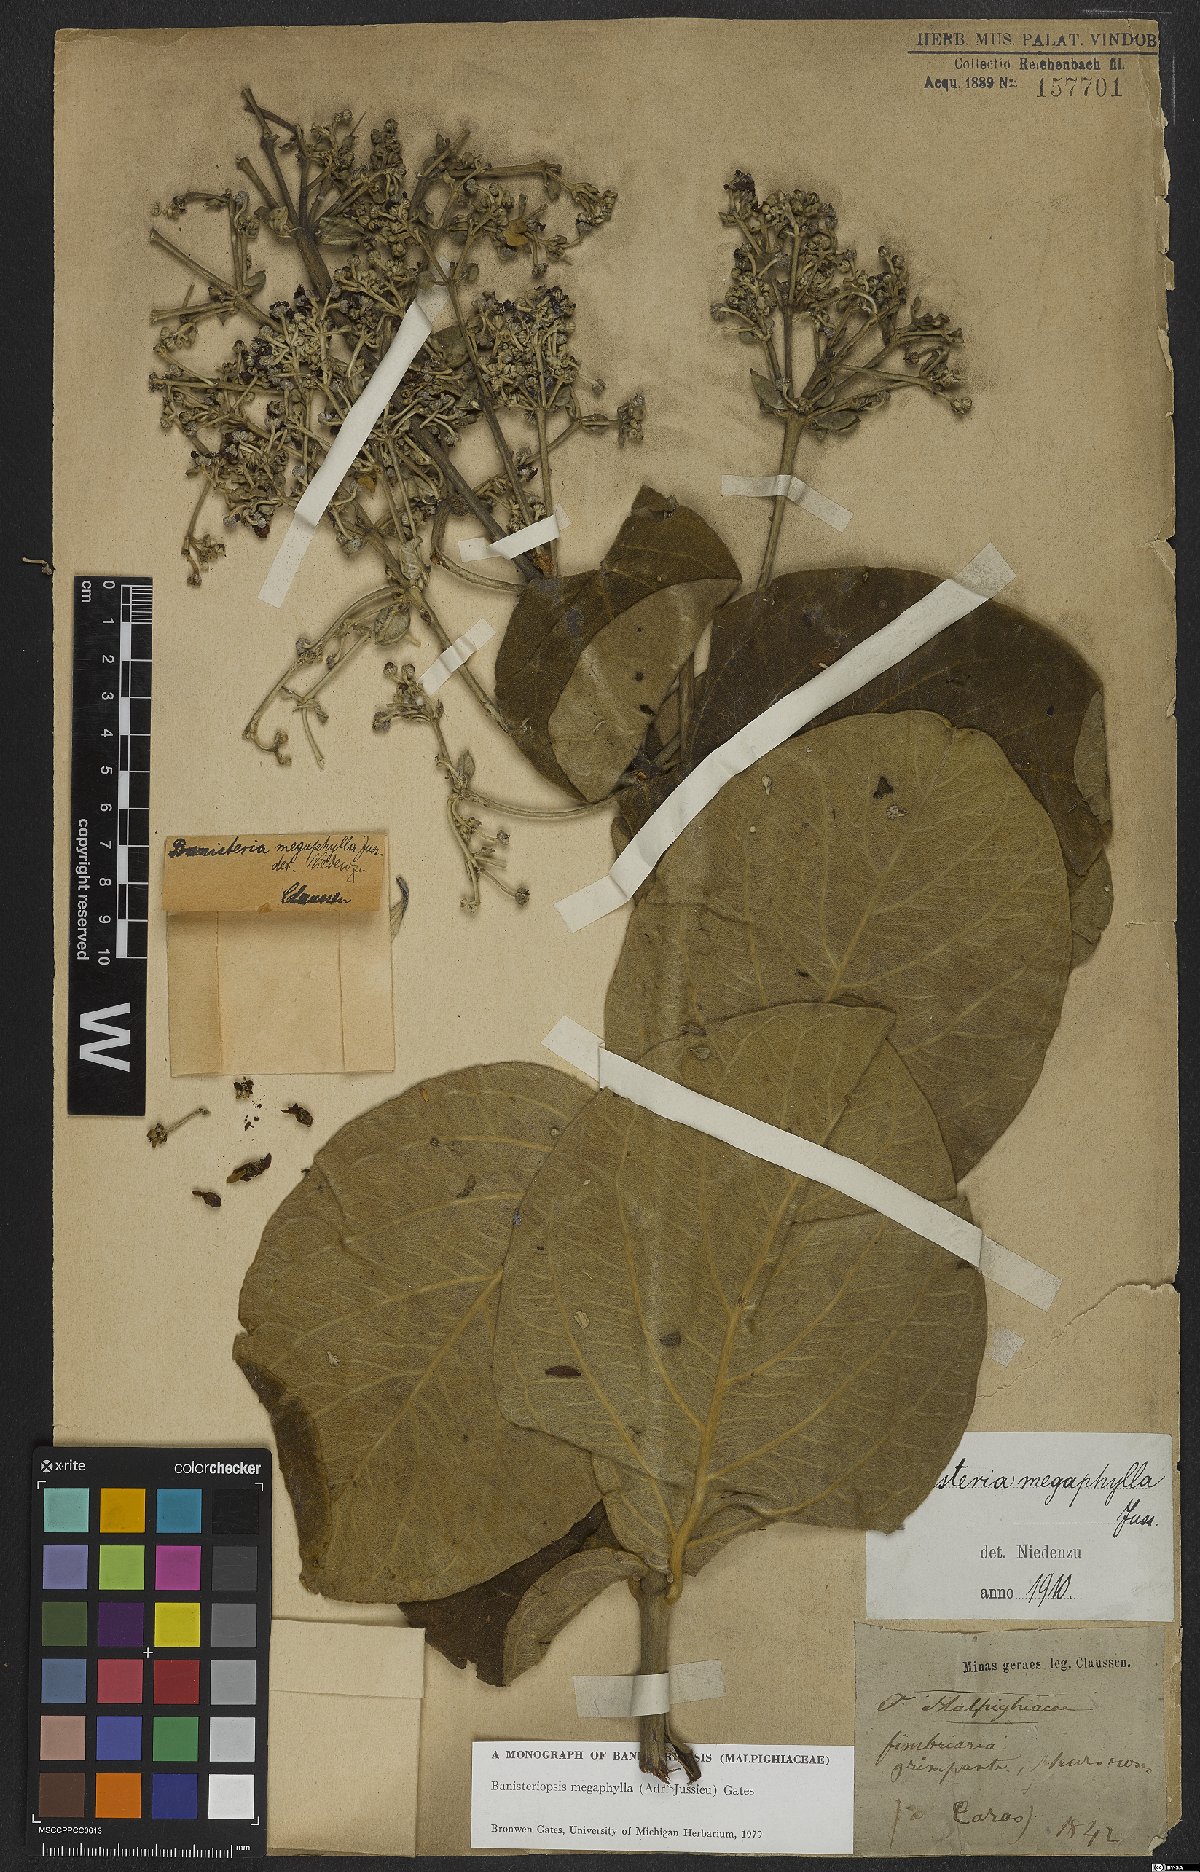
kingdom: Plantae
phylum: Tracheophyta
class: Magnoliopsida
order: Malpighiales
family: Malpighiaceae
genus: Banisteriopsis
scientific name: Banisteriopsis megaphylla
